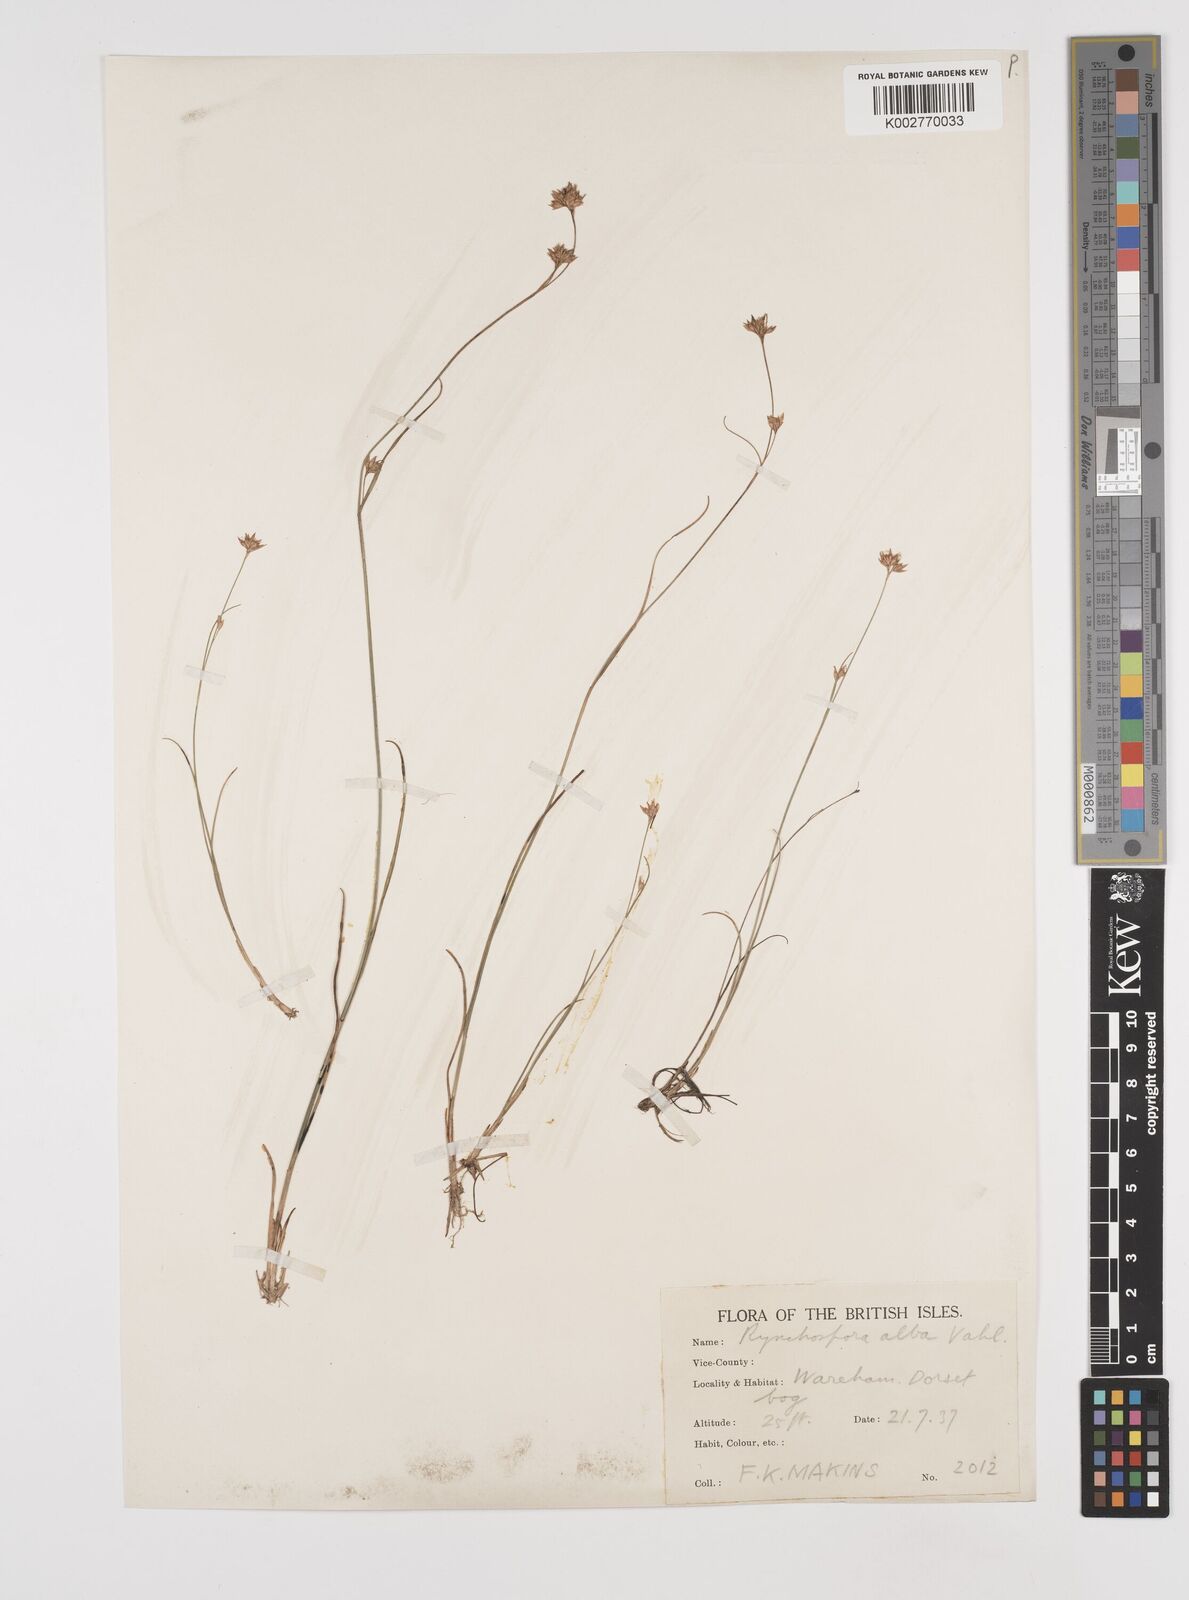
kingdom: Plantae
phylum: Tracheophyta
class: Liliopsida
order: Poales
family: Cyperaceae
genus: Rhynchospora
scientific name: Rhynchospora alba
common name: White beak-sedge
